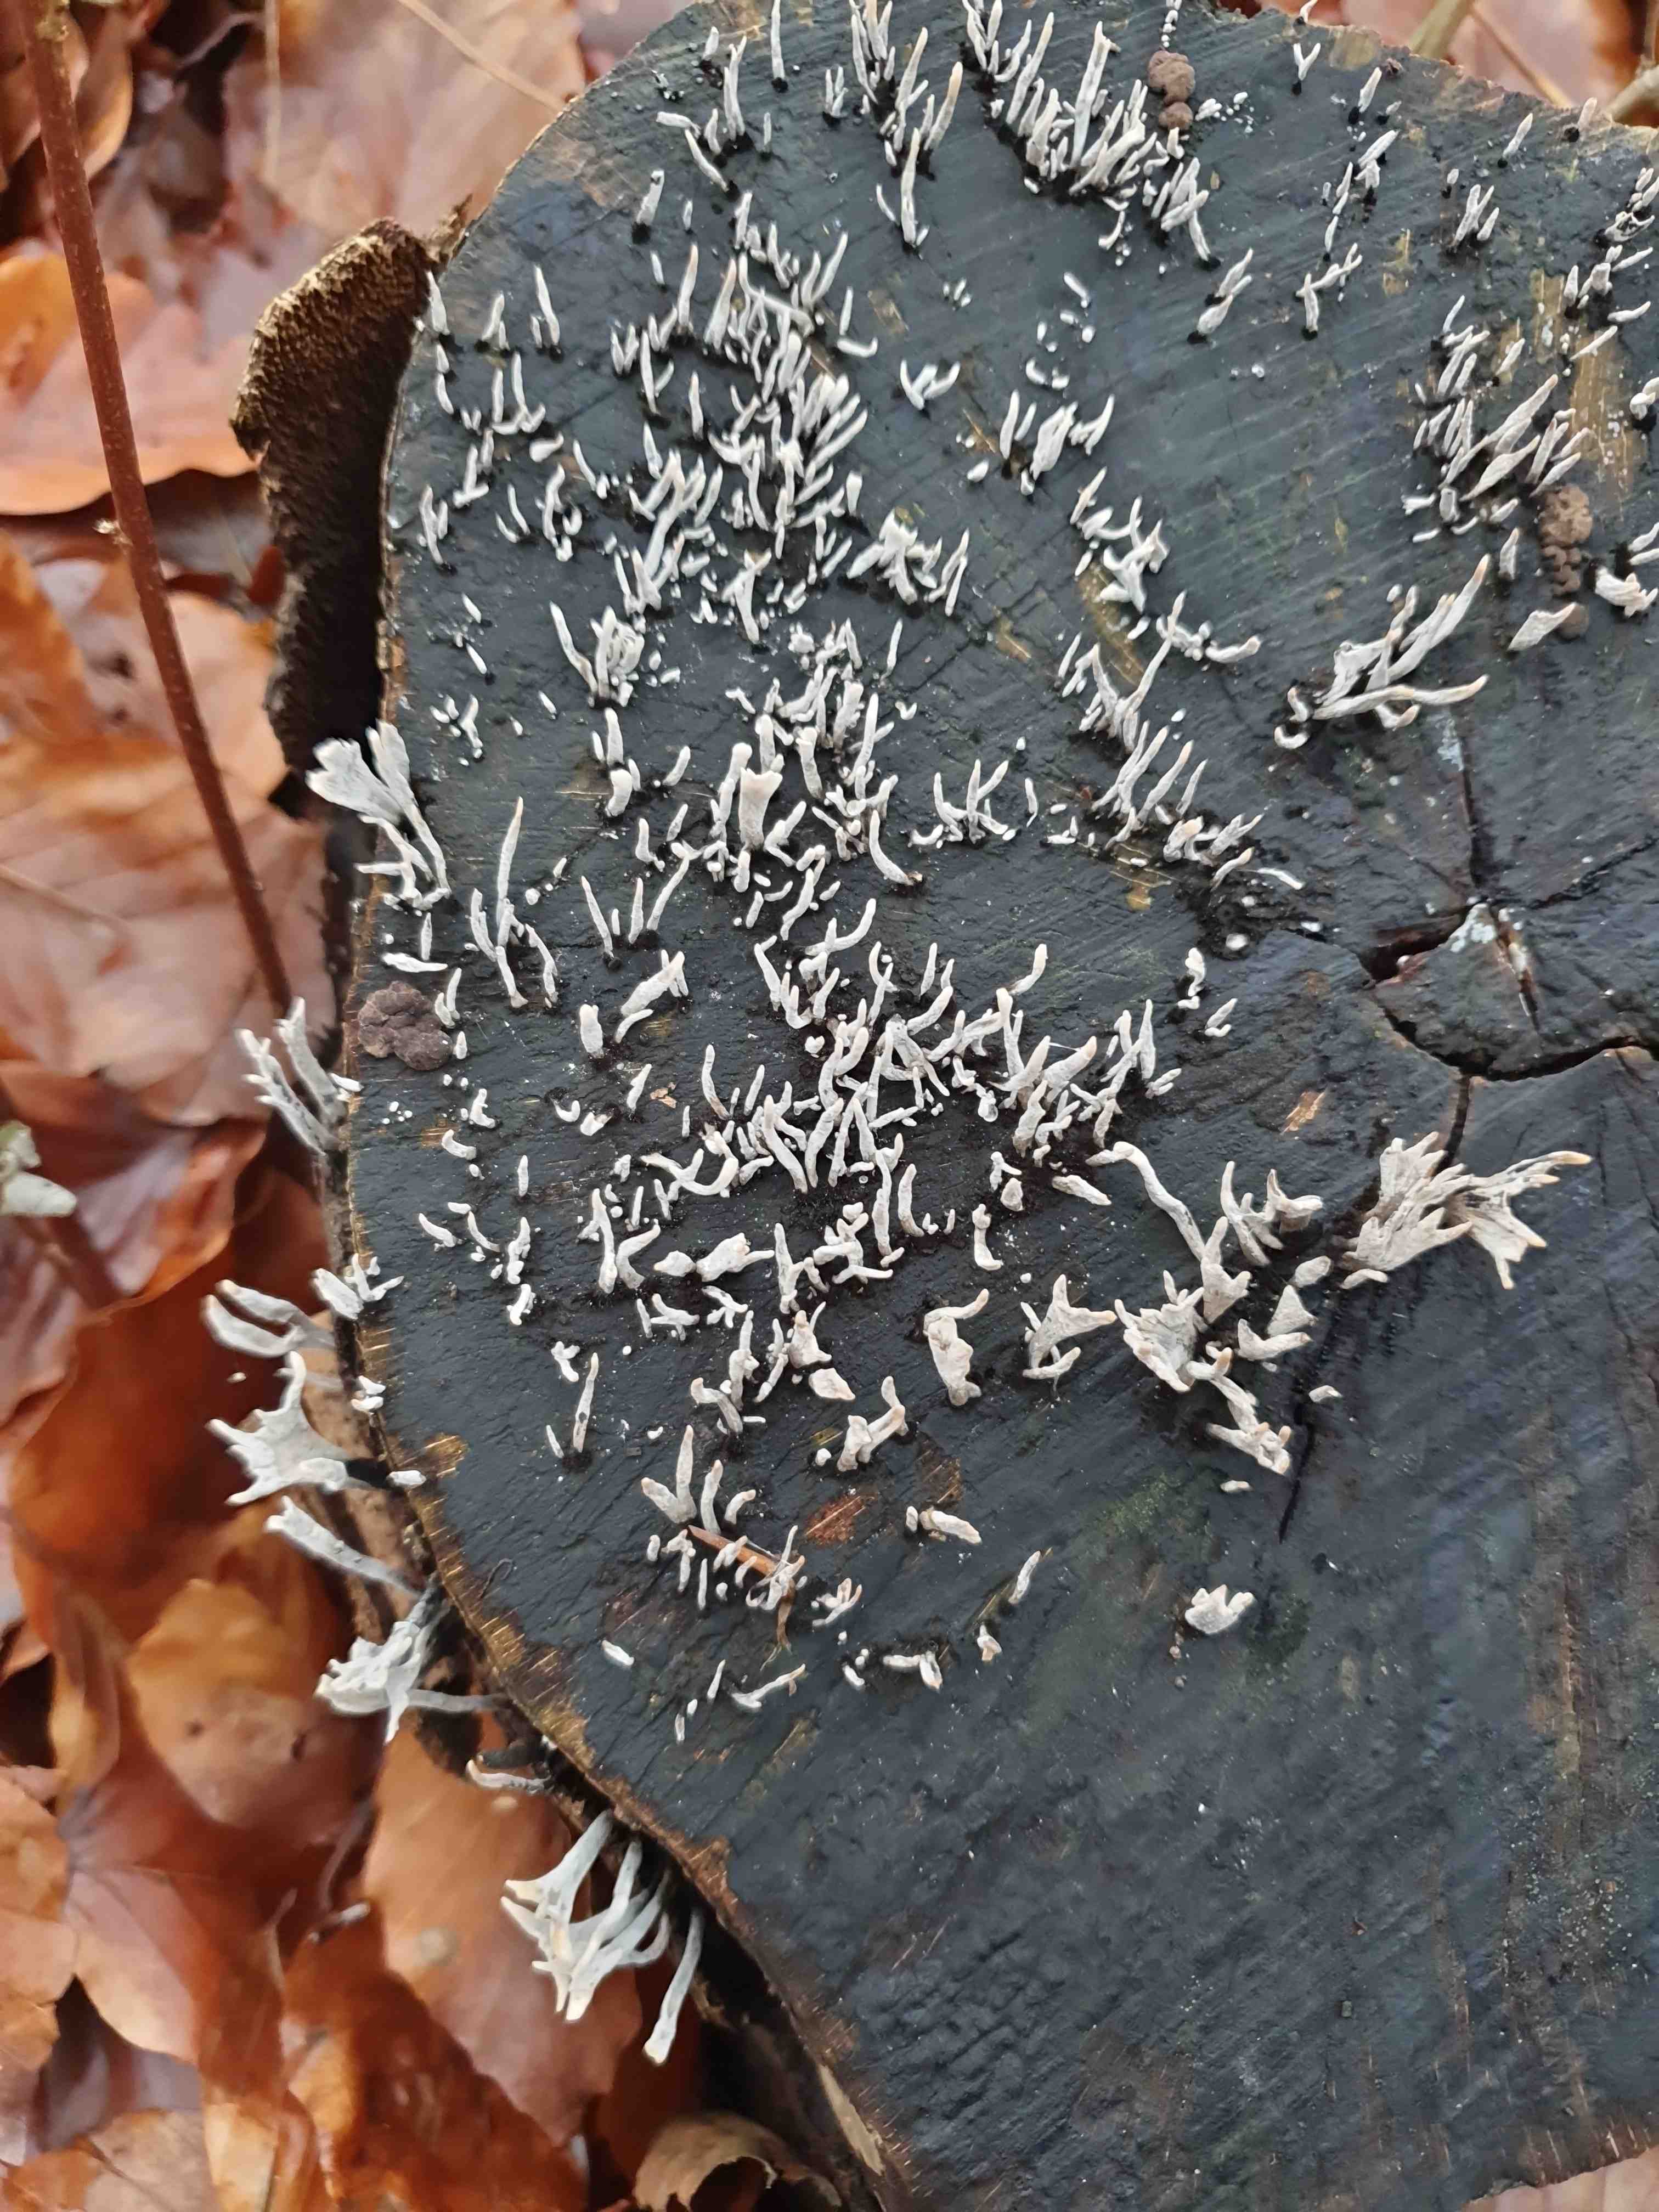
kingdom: Fungi
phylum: Ascomycota
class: Sordariomycetes
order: Xylariales
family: Xylariaceae
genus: Xylaria
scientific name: Xylaria hypoxylon
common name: grenet stødsvamp
